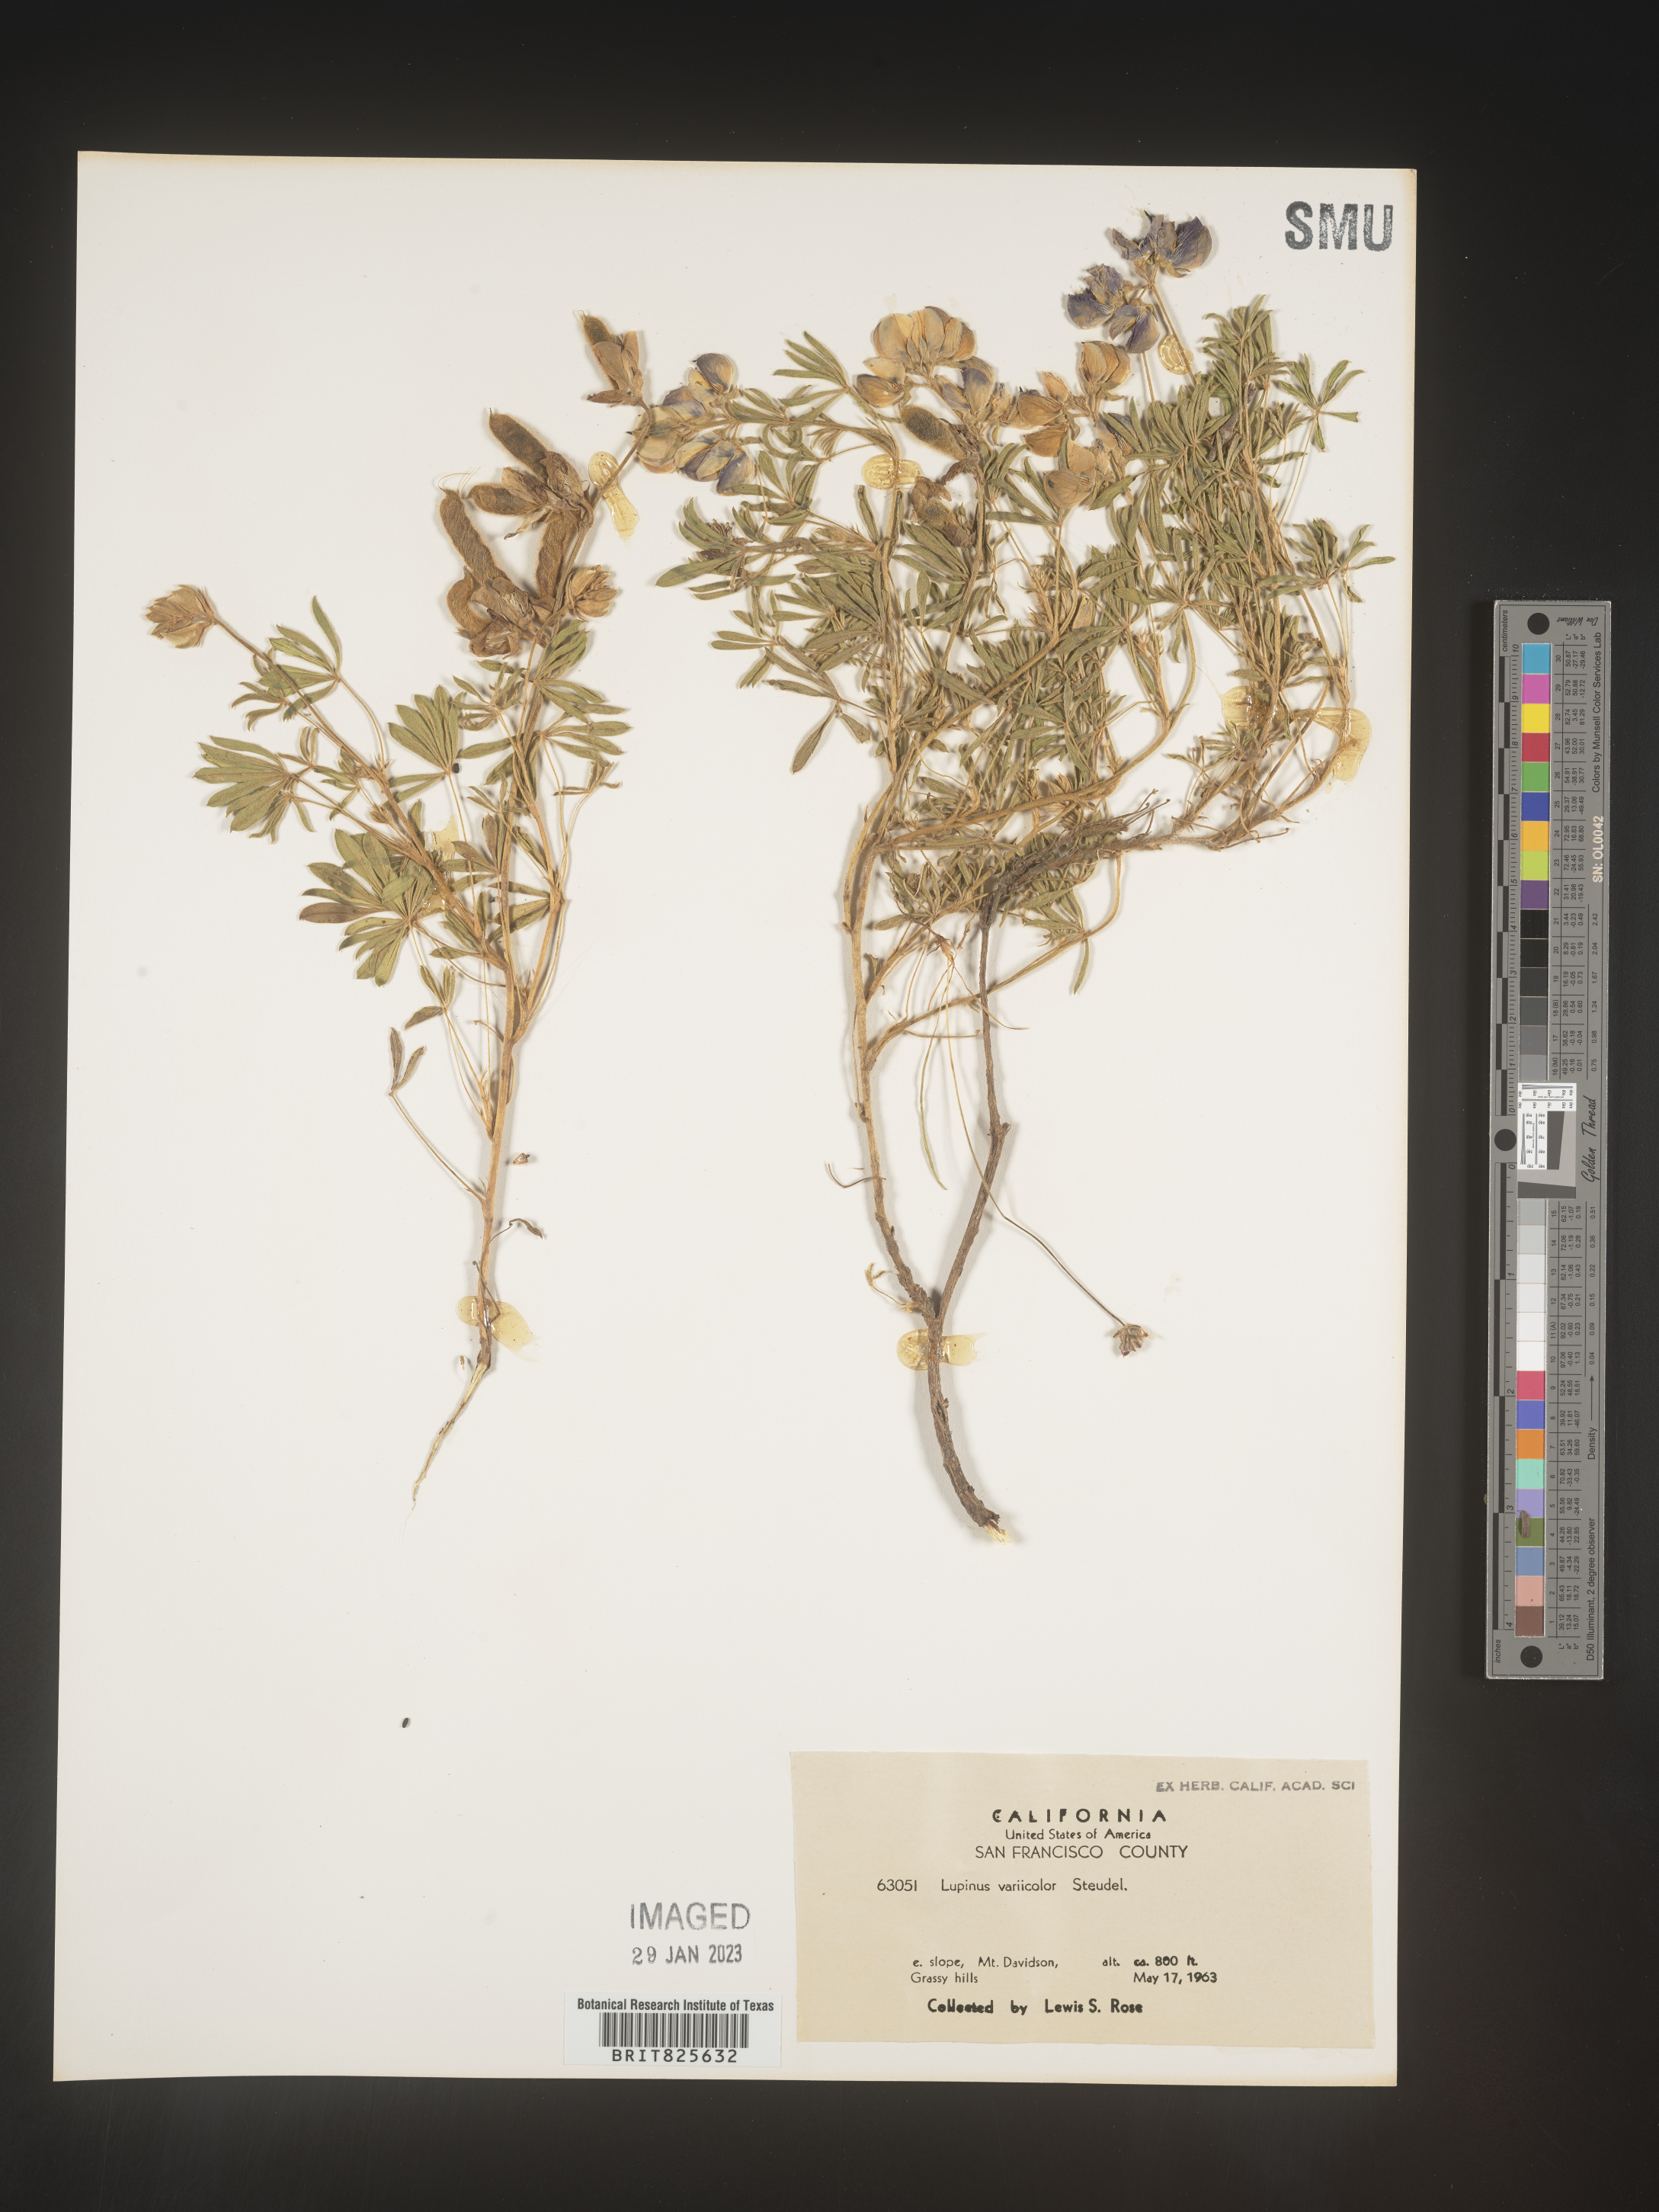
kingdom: Plantae
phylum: Tracheophyta
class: Magnoliopsida
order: Fabales
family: Fabaceae
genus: Lupinus
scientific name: Lupinus
